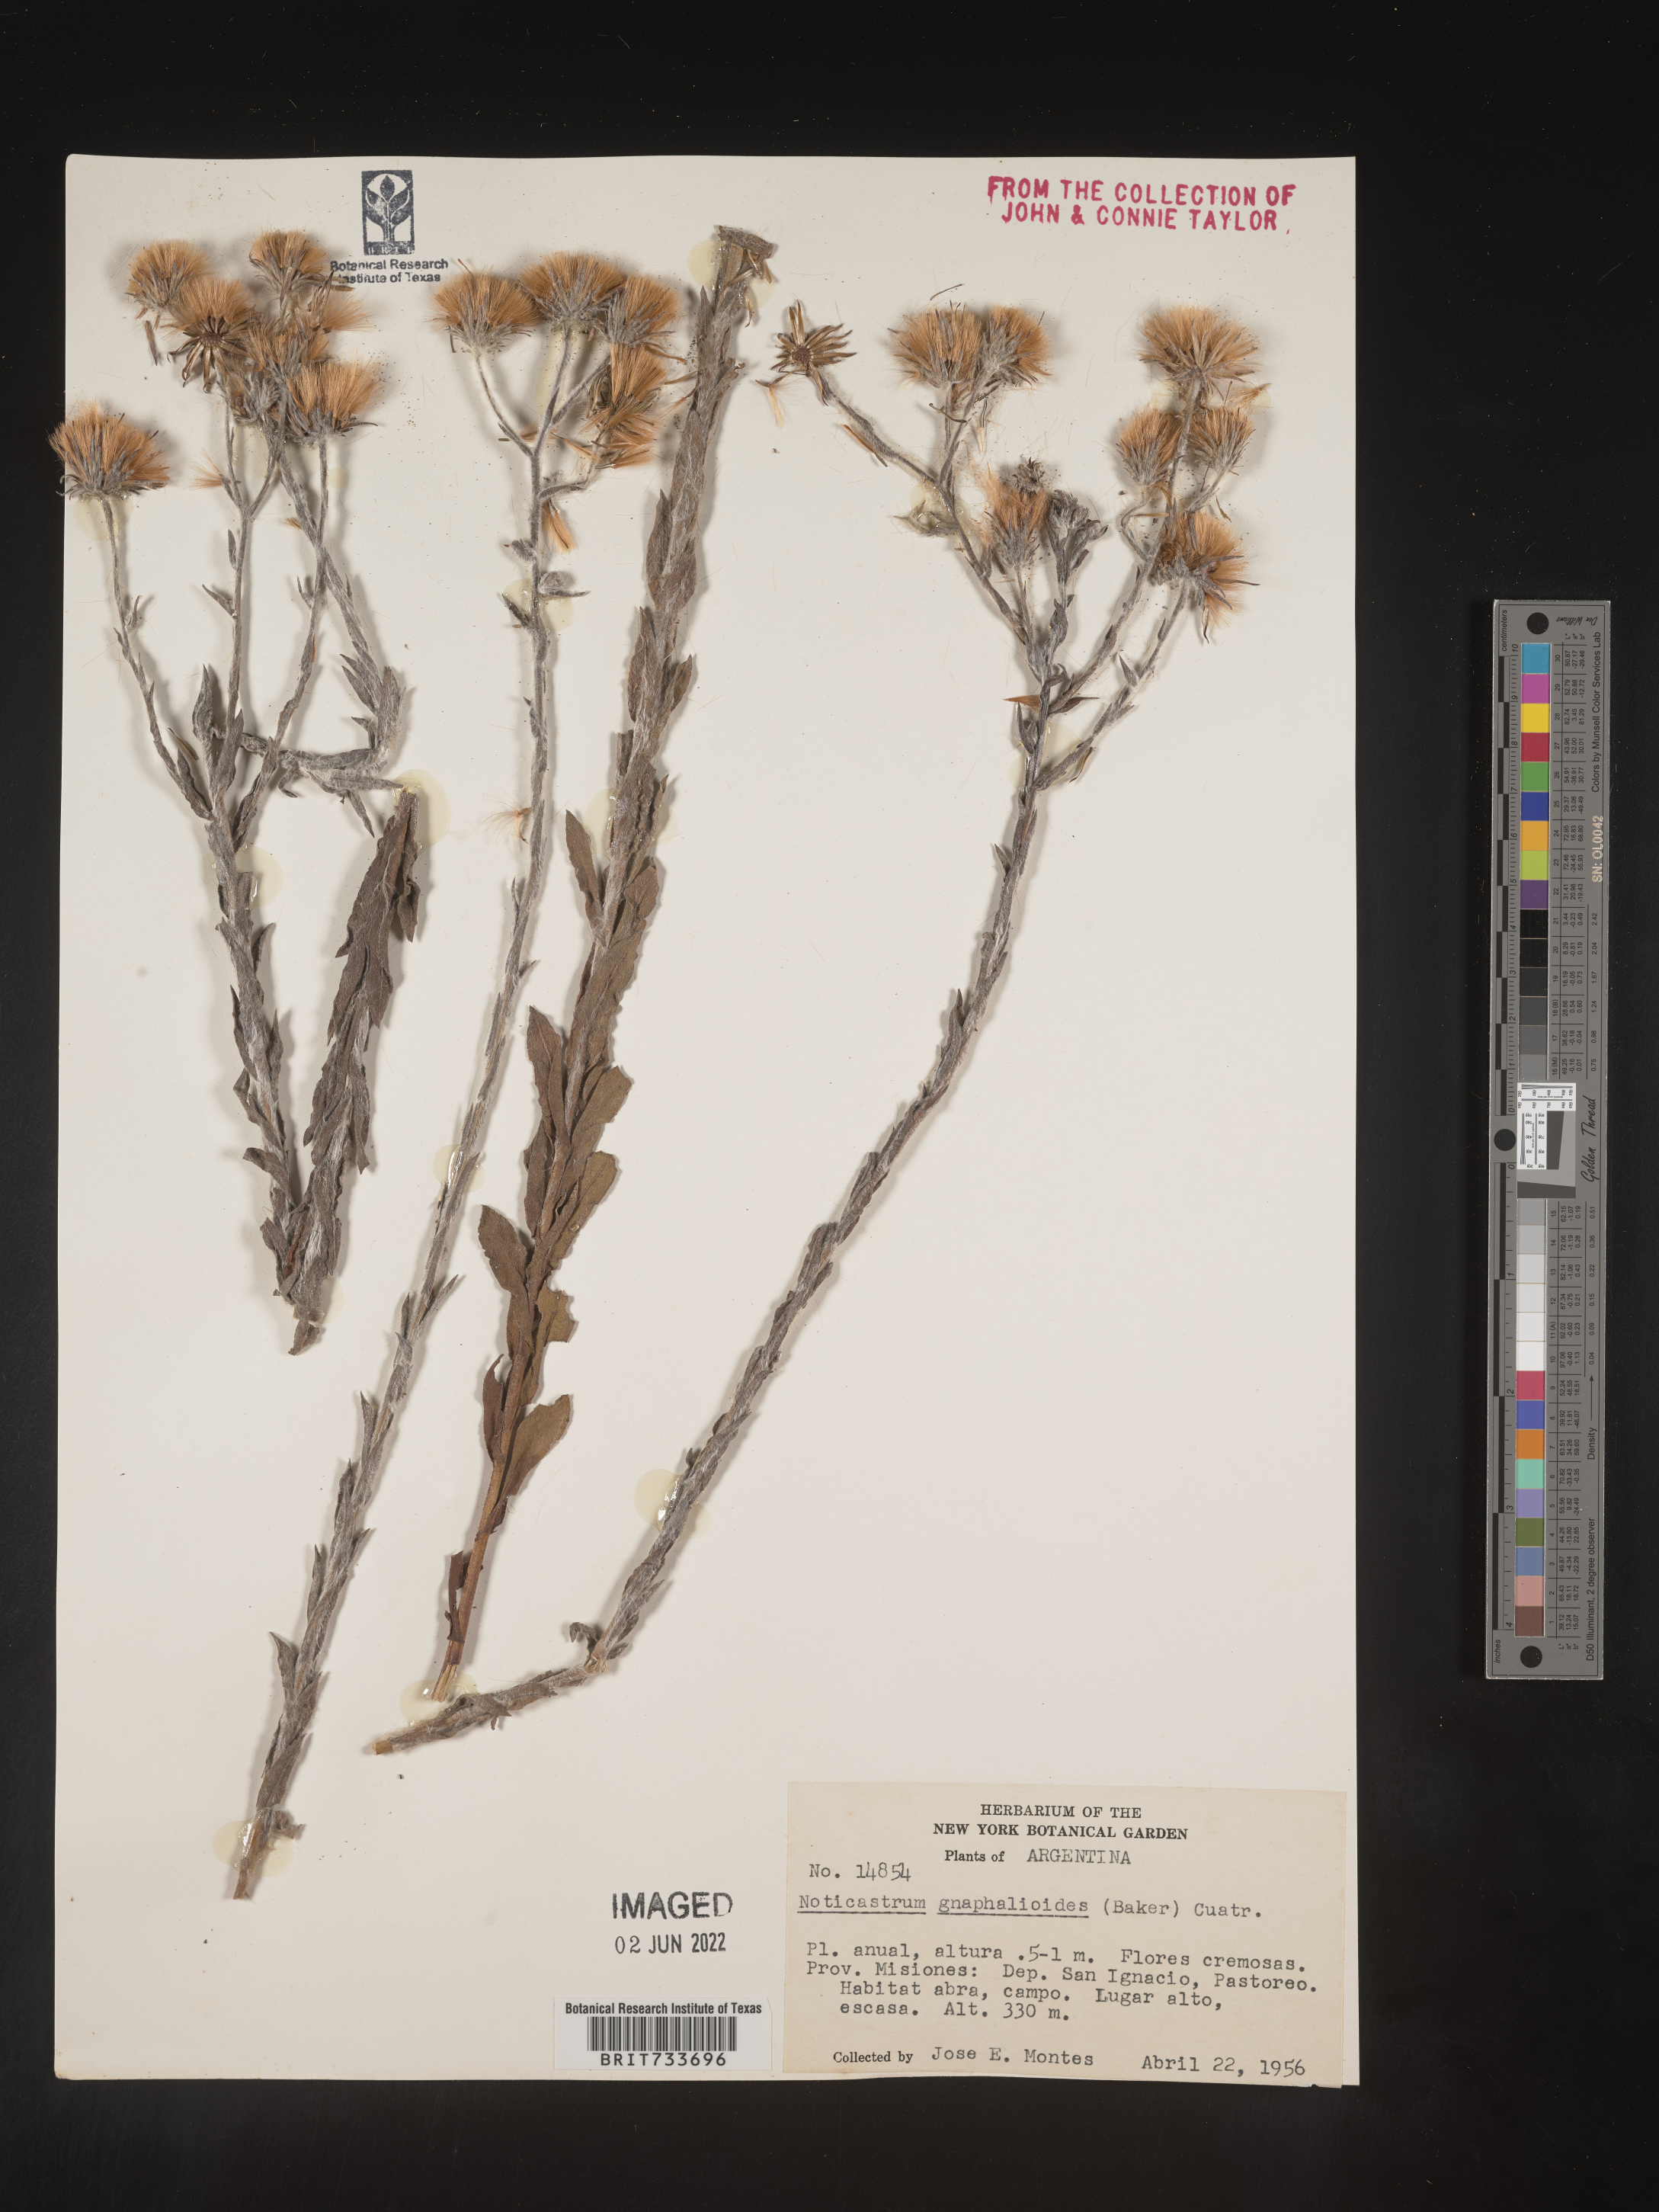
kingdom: Plantae
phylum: Tracheophyta
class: Magnoliopsida
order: Asterales
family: Asteraceae
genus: Noticastrum
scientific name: Noticastrum gnaphalioides
